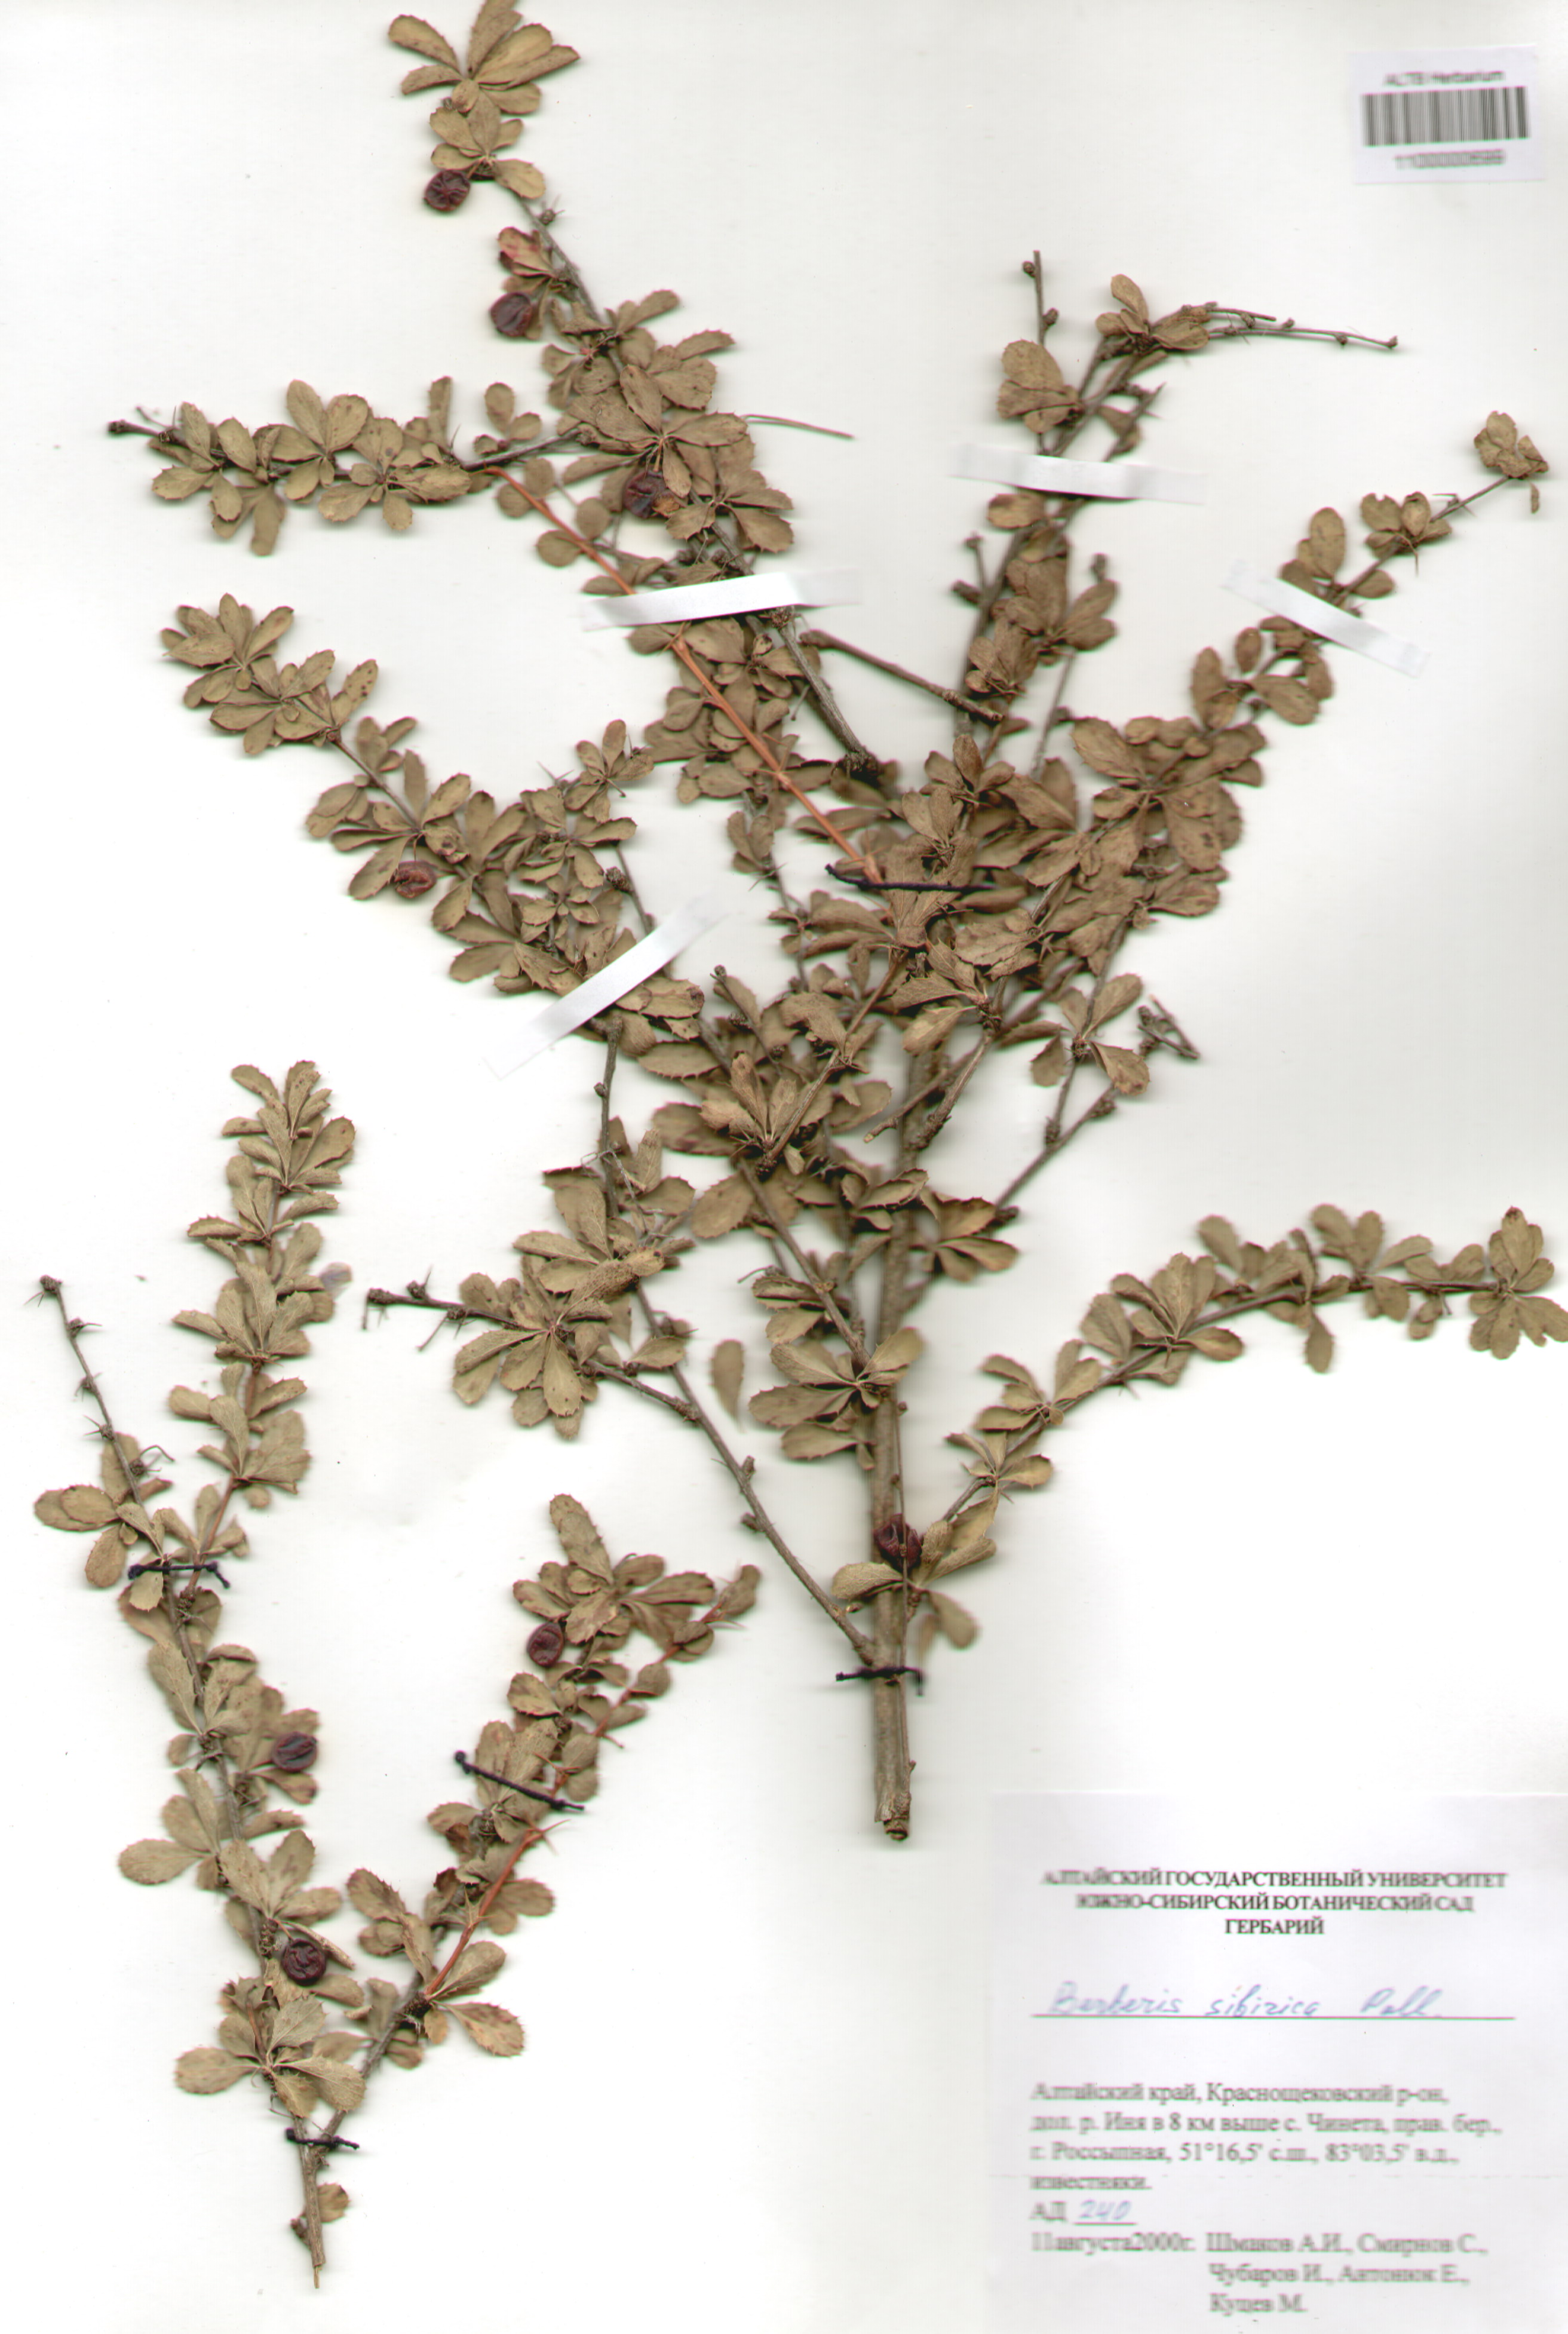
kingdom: Plantae
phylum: Tracheophyta
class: Magnoliopsida
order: Ranunculales
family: Berberidaceae
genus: Berberis
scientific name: Berberis sibirica
